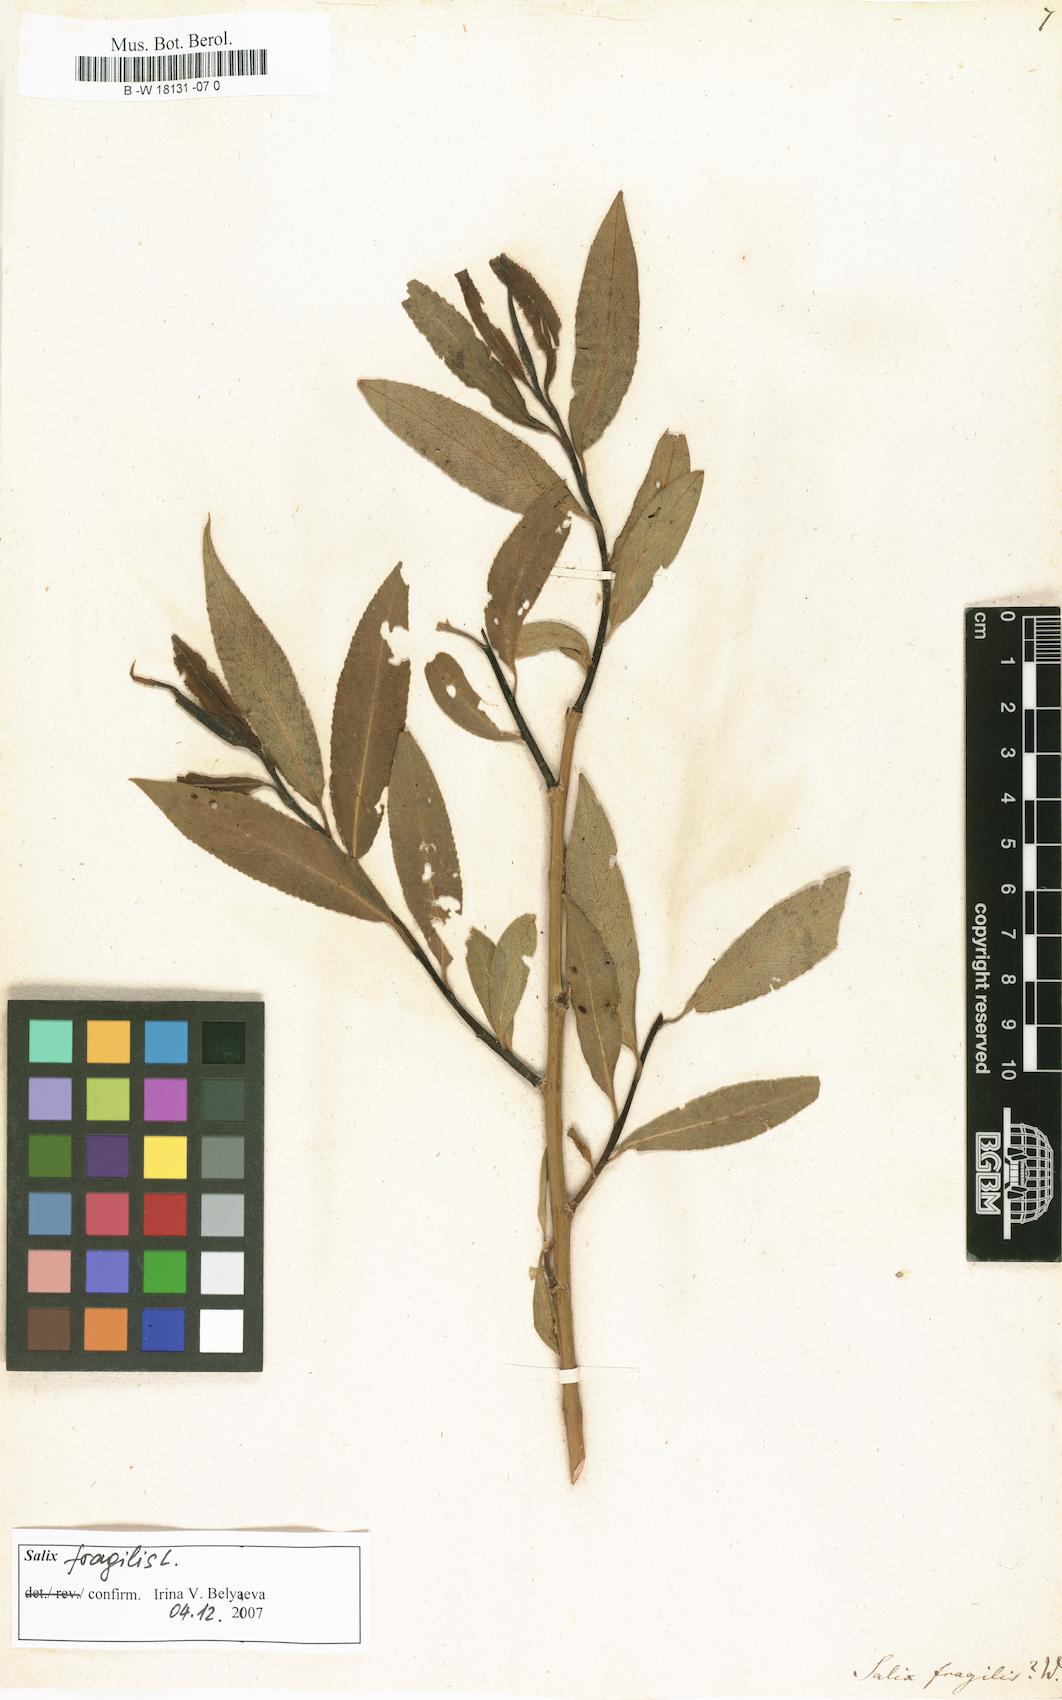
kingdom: Plantae
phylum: Tracheophyta
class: Magnoliopsida
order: Malpighiales
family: Salicaceae
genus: Salix
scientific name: Salix fragilis
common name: Crack willow
